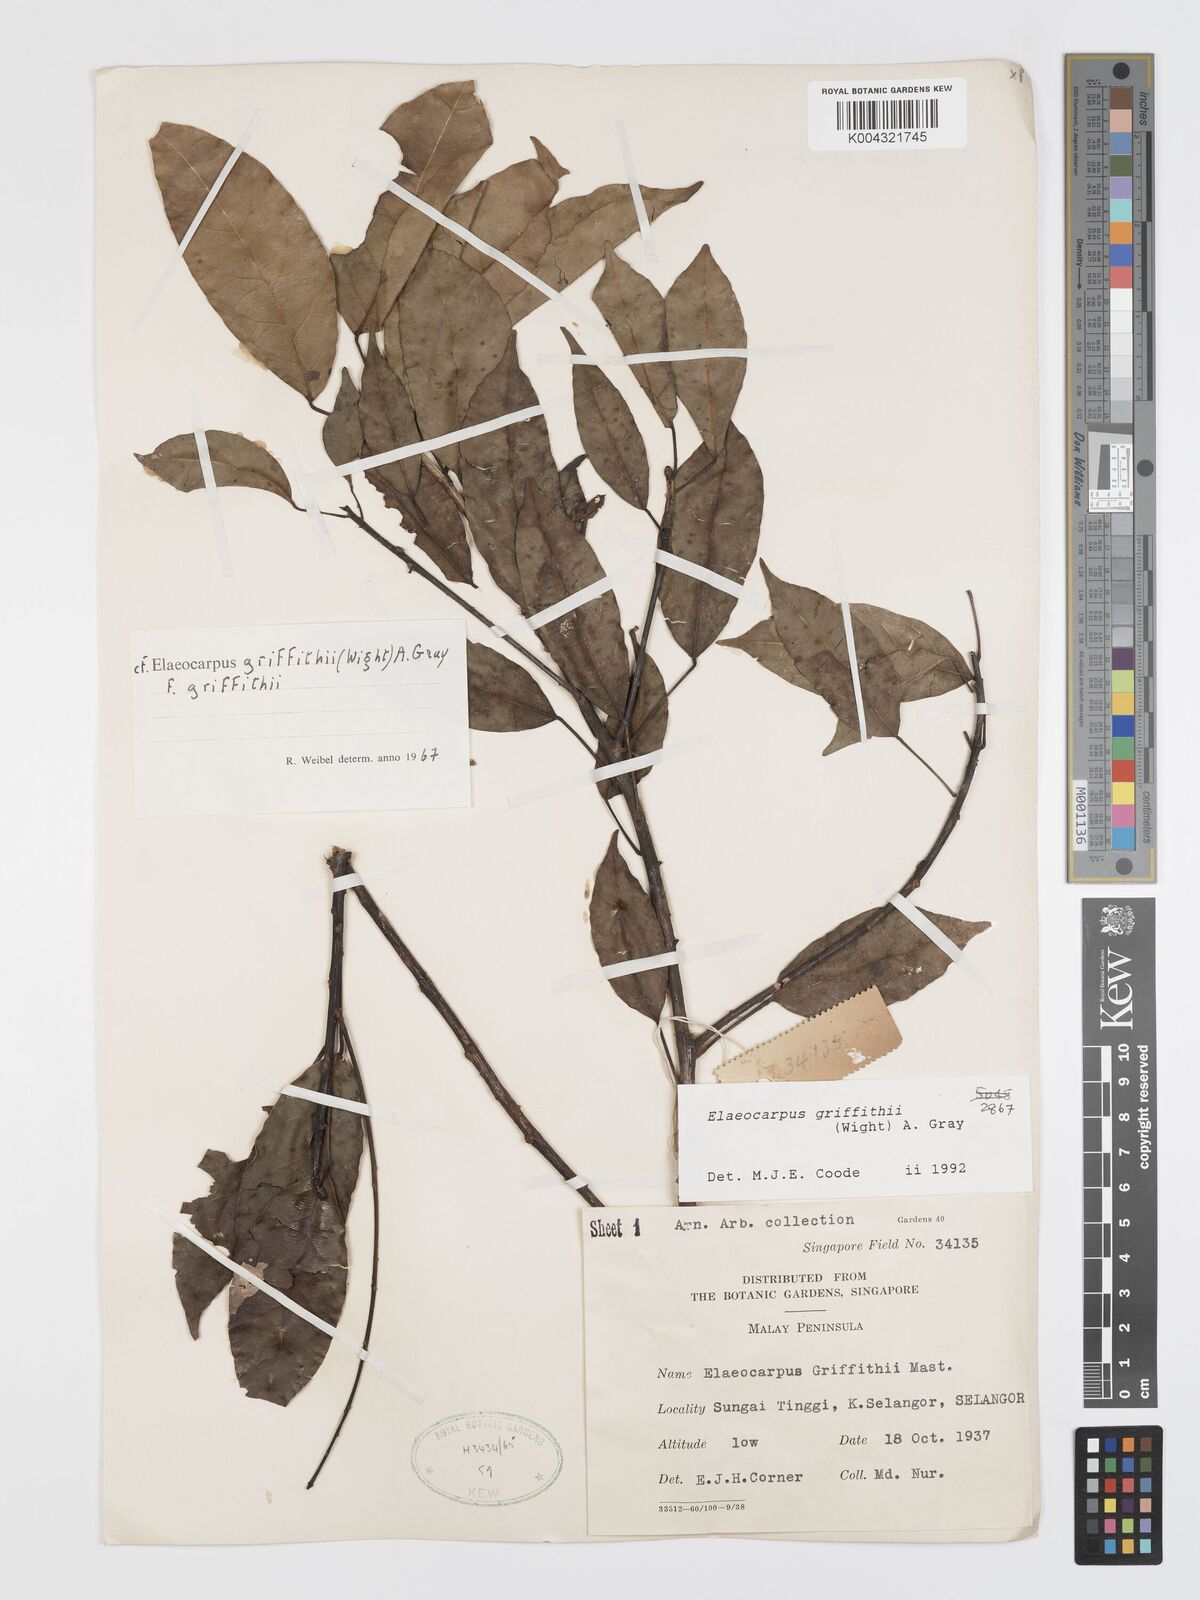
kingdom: Plantae
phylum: Tracheophyta
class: Magnoliopsida
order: Oxalidales
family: Elaeocarpaceae
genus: Elaeocarpus
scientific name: Elaeocarpus griffithii
